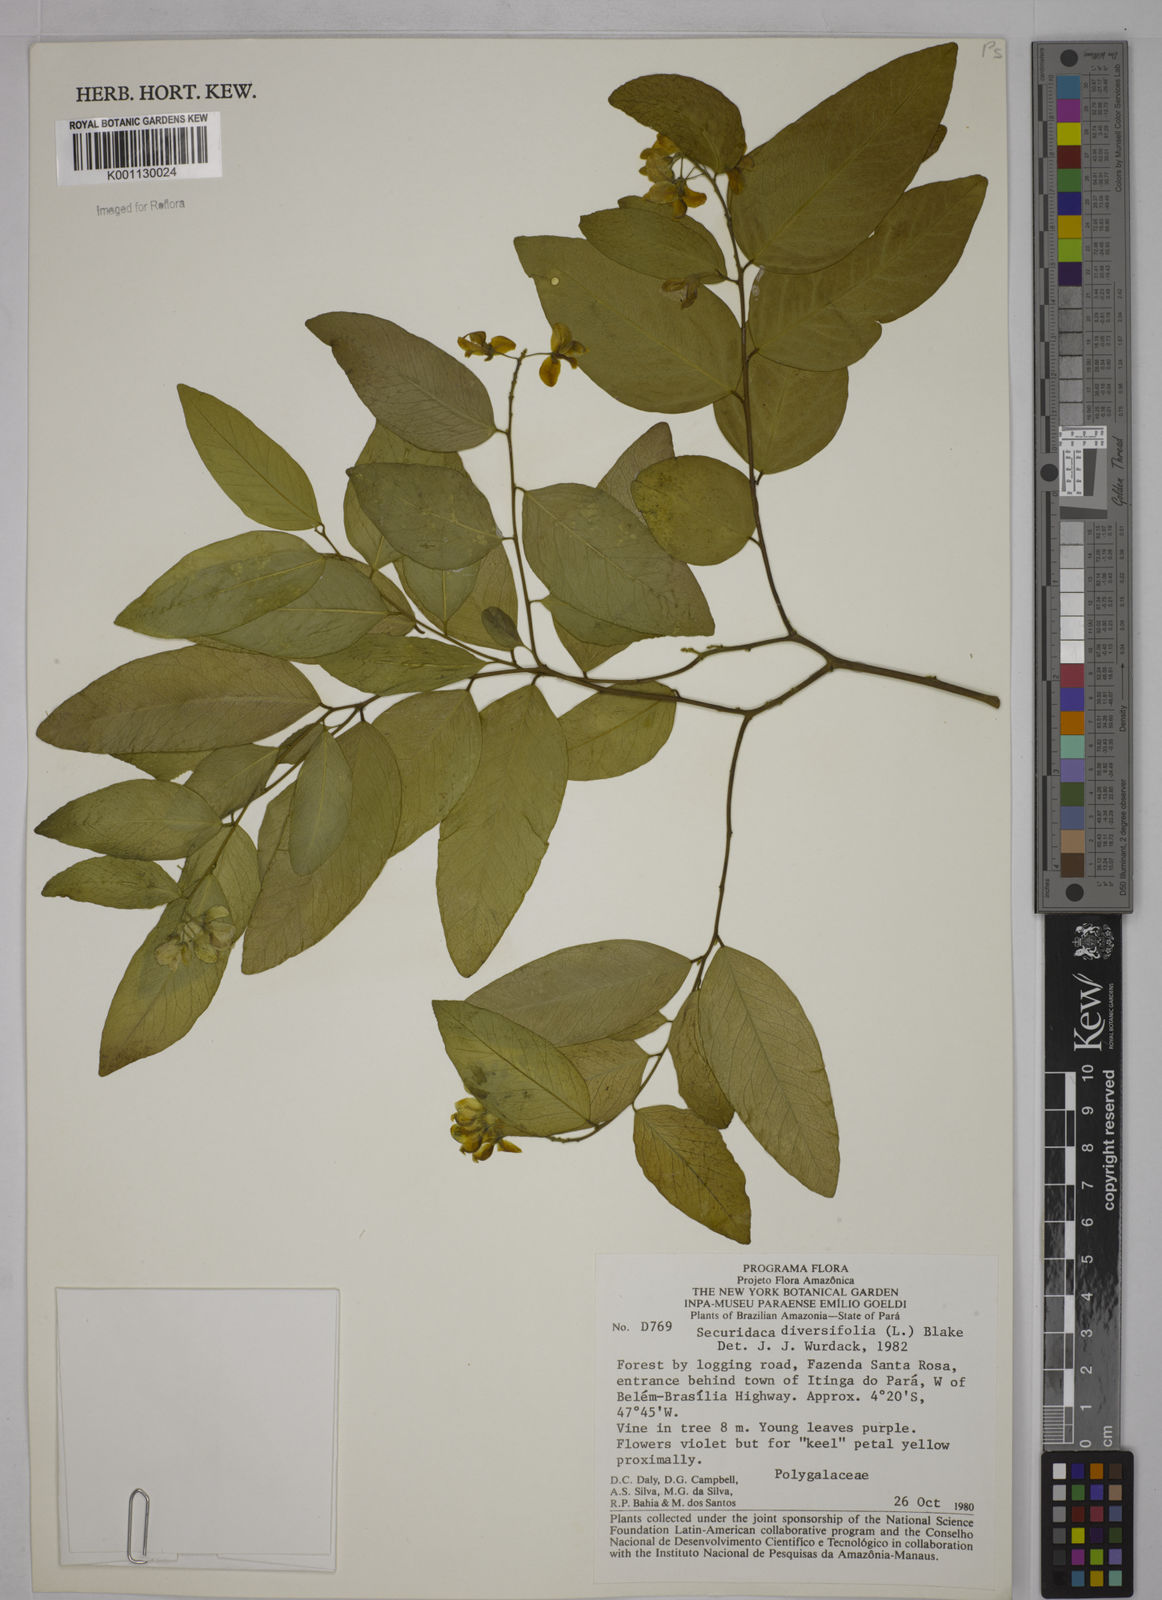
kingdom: Plantae
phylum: Tracheophyta
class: Magnoliopsida
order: Fabales
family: Polygalaceae
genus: Securidaca
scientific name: Securidaca diversifolia
